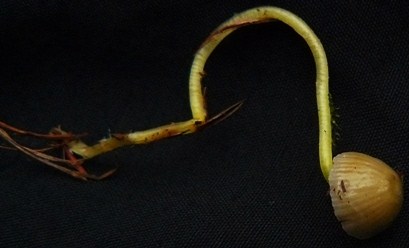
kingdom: Fungi
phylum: Basidiomycota
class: Agaricomycetes
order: Agaricales
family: Mycenaceae
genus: Mycena
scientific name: Mycena epipterygia
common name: gulstokket huesvamp
